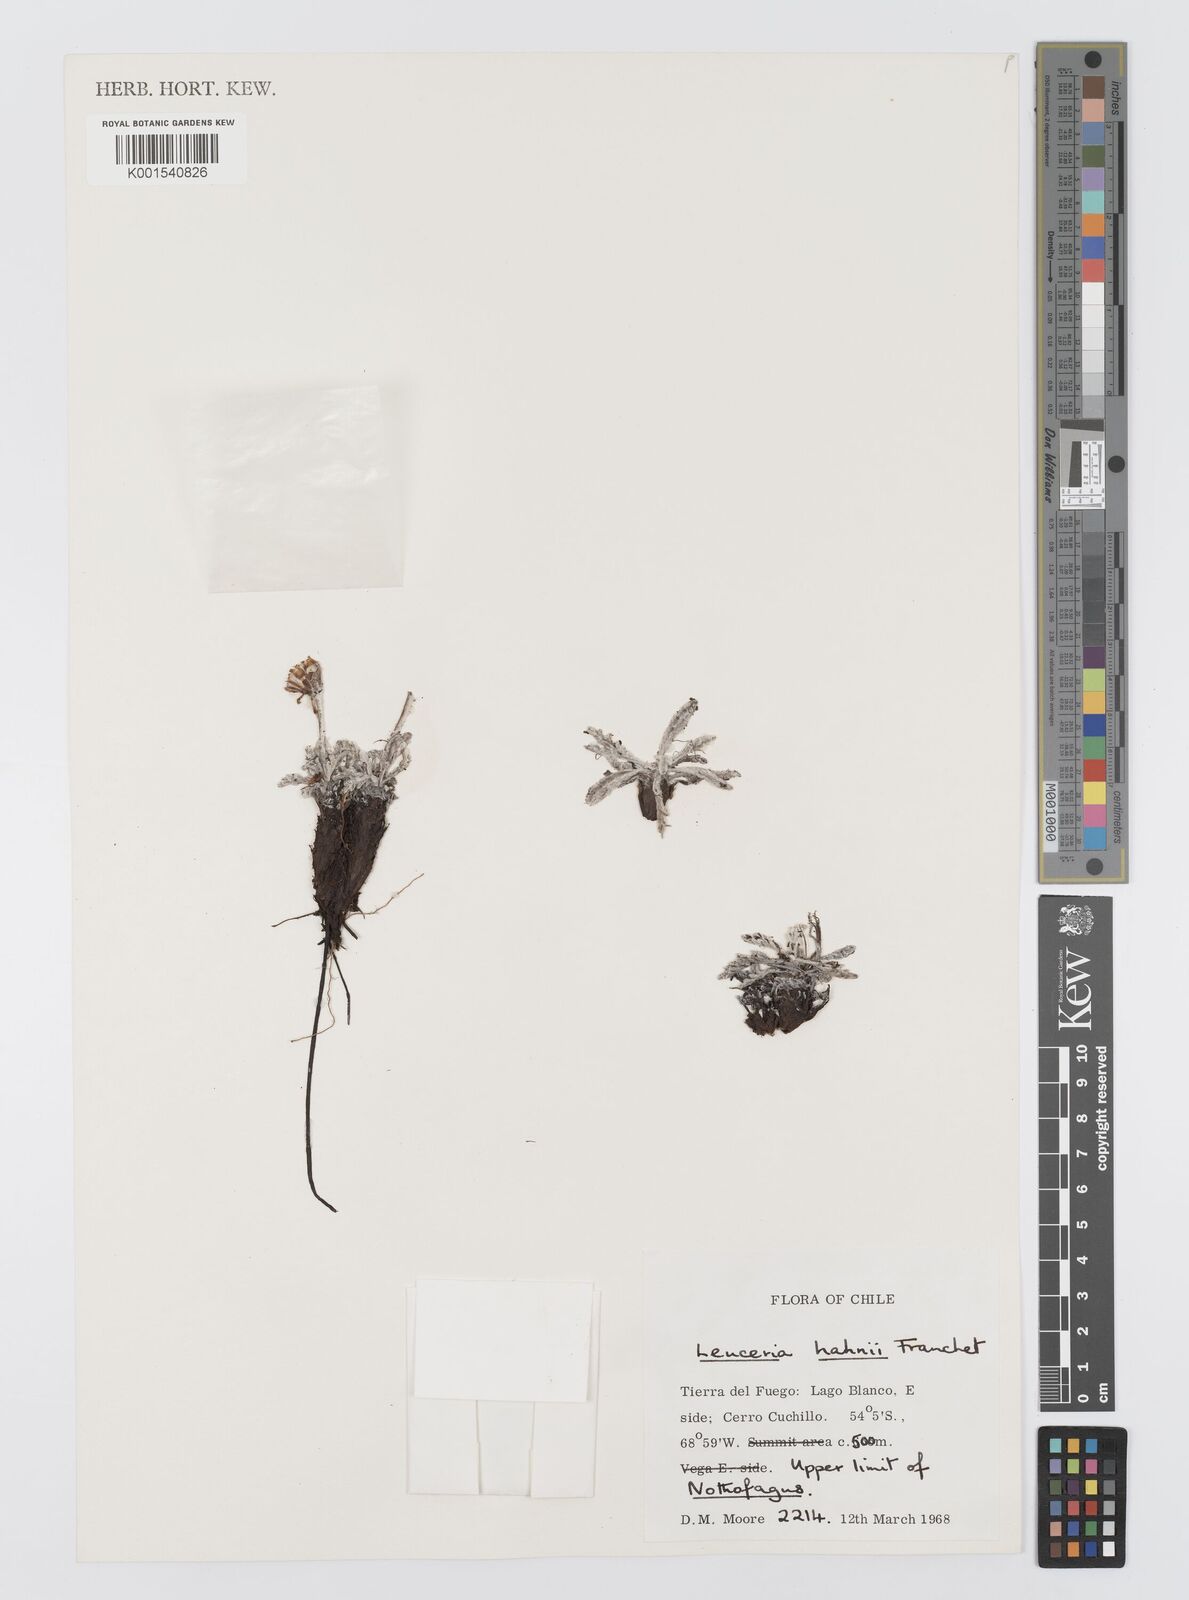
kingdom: Plantae
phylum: Tracheophyta
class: Magnoliopsida
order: Asterales
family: Asteraceae
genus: Leucheria
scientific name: Leucheria hahnii
